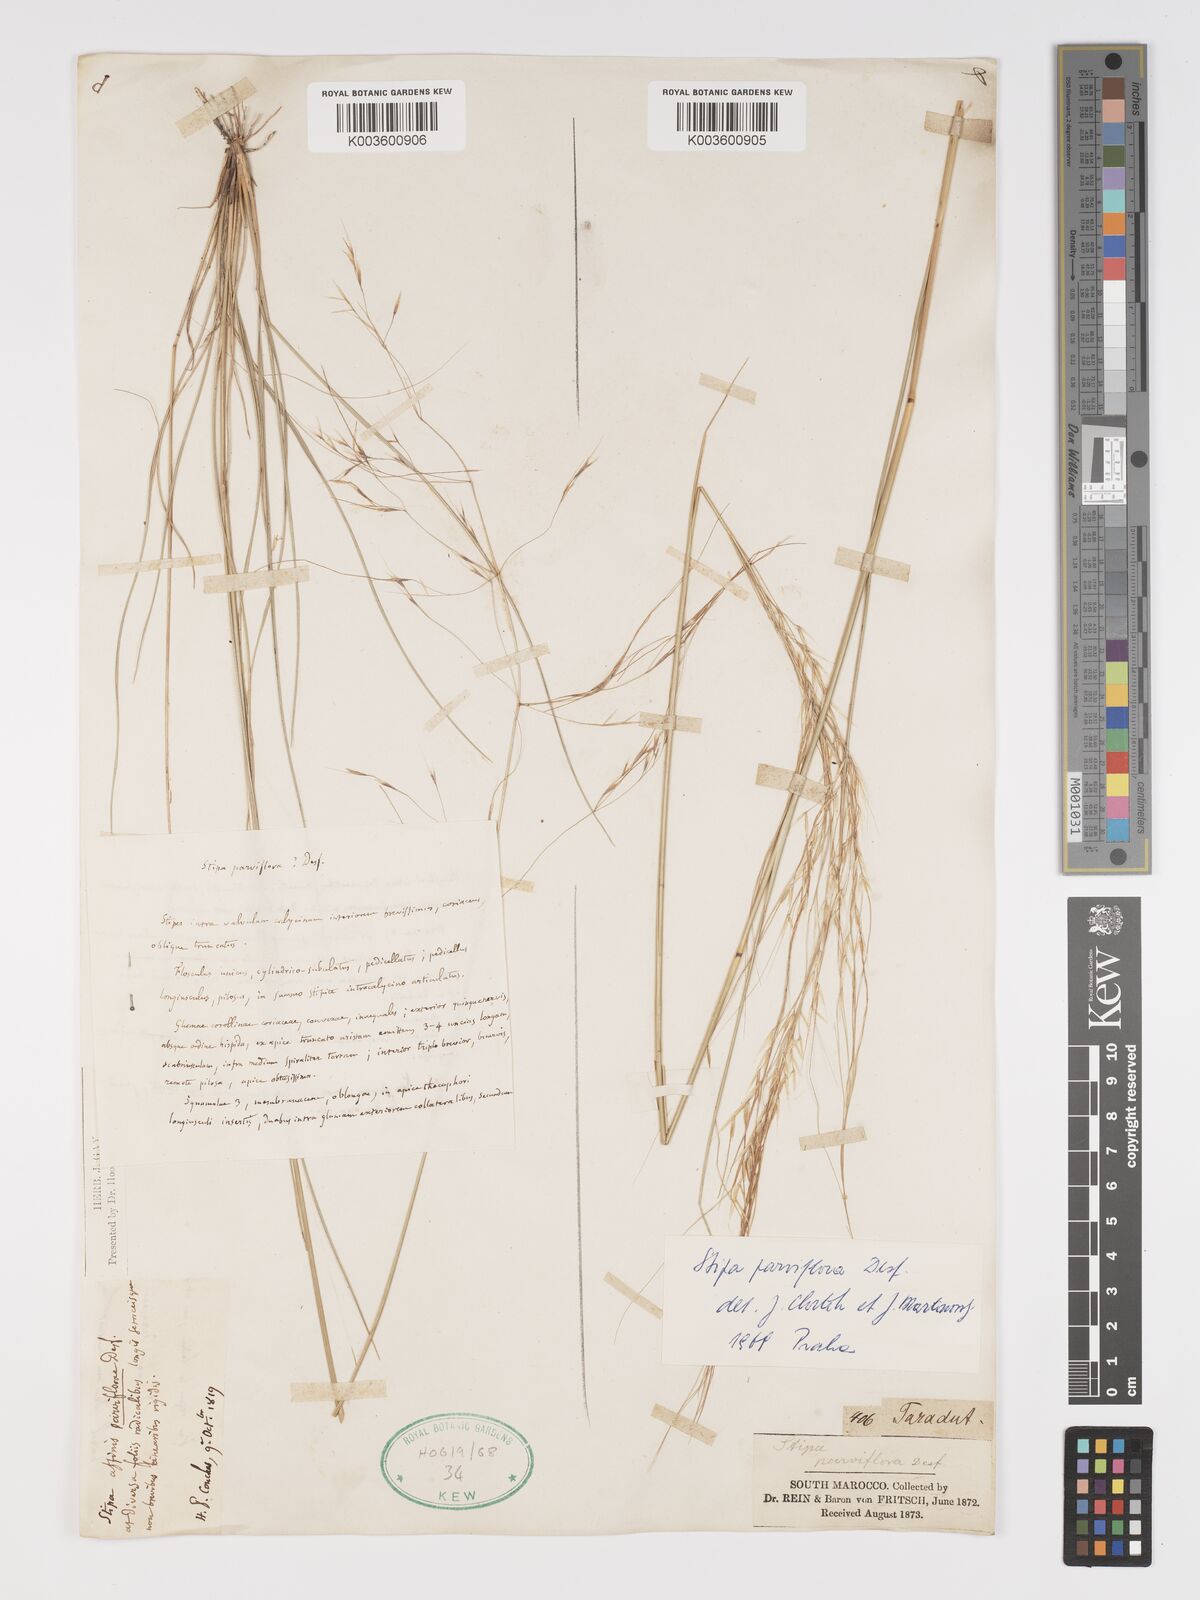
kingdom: Plantae
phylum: Tracheophyta
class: Liliopsida
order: Poales
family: Poaceae
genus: Achnatherum
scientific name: Achnatherum parviflorum
